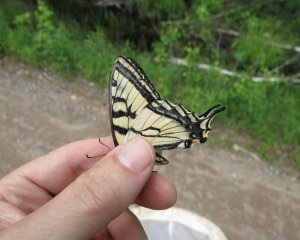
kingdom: Animalia
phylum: Arthropoda
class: Insecta
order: Lepidoptera
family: Papilionidae
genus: Pterourus
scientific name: Pterourus canadensis
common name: Canadian Tiger Swallowtail
